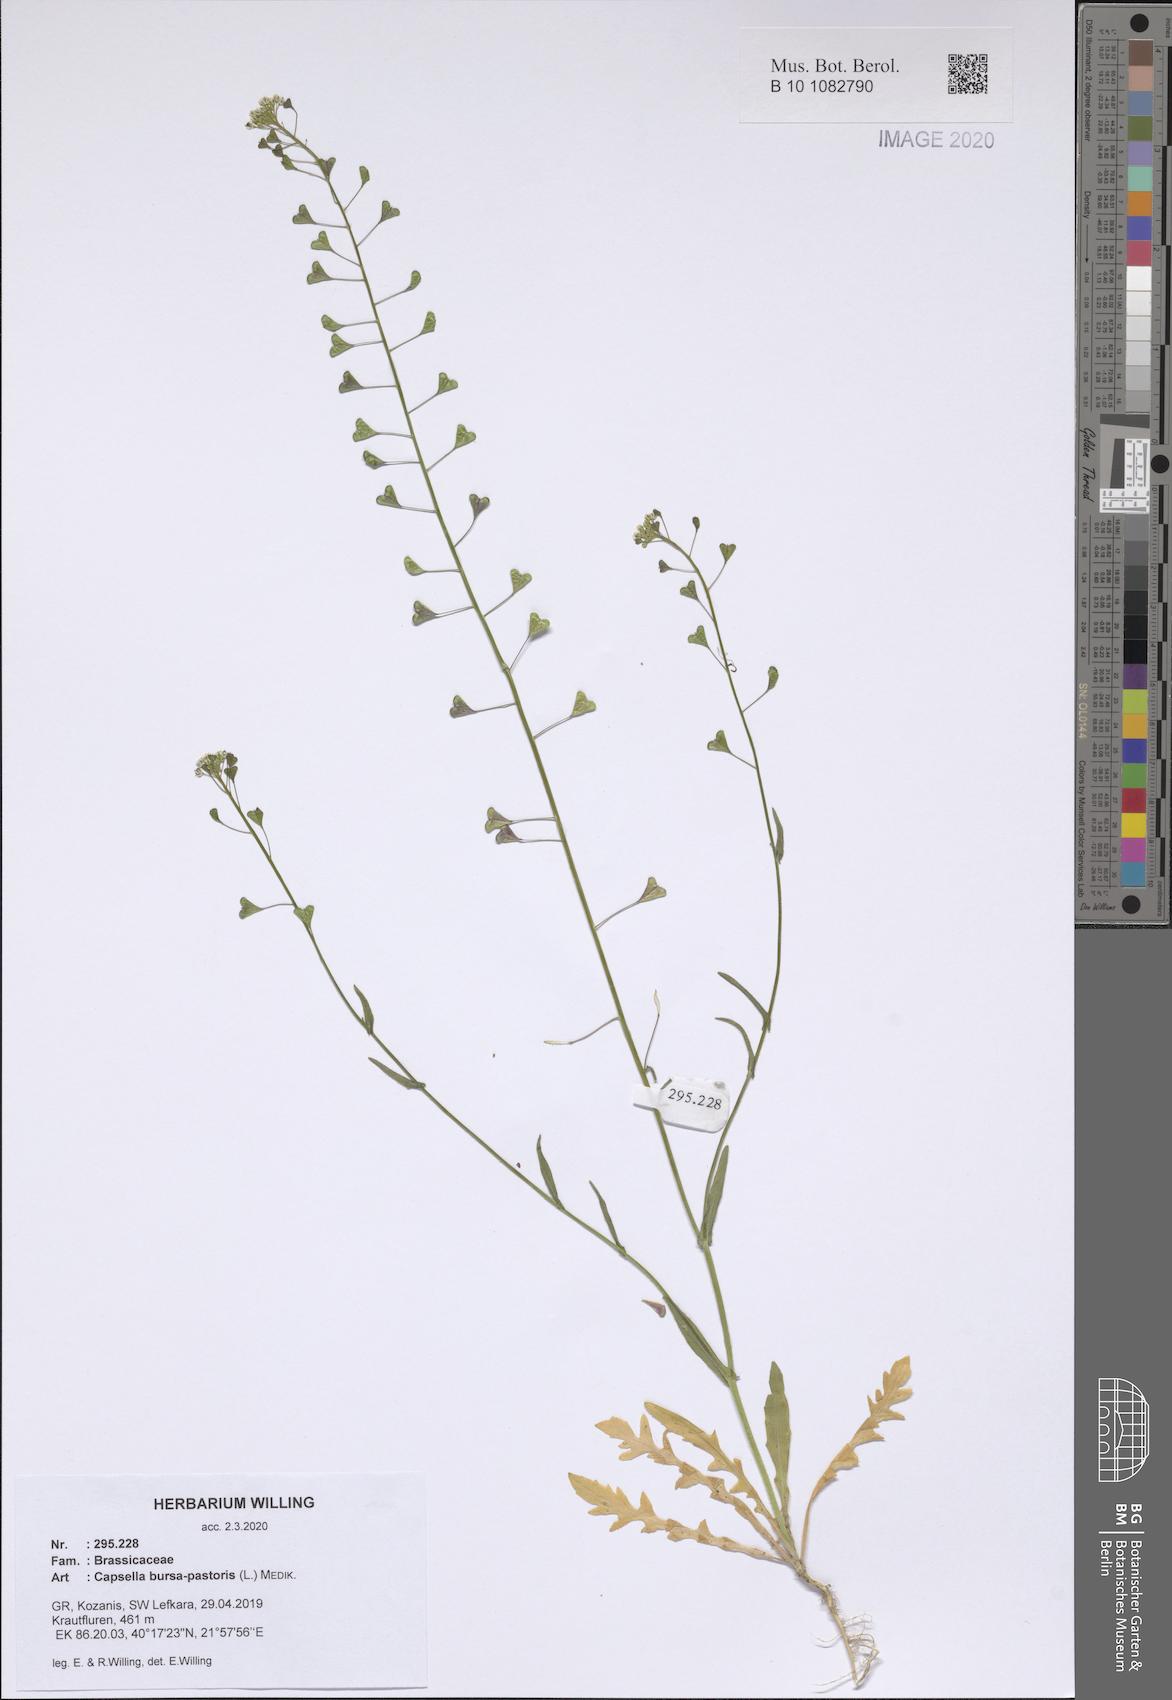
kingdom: Plantae
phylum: Tracheophyta
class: Magnoliopsida
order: Brassicales
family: Brassicaceae
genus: Capsella
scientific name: Capsella bursa-pastoris
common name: Shepherd's purse
